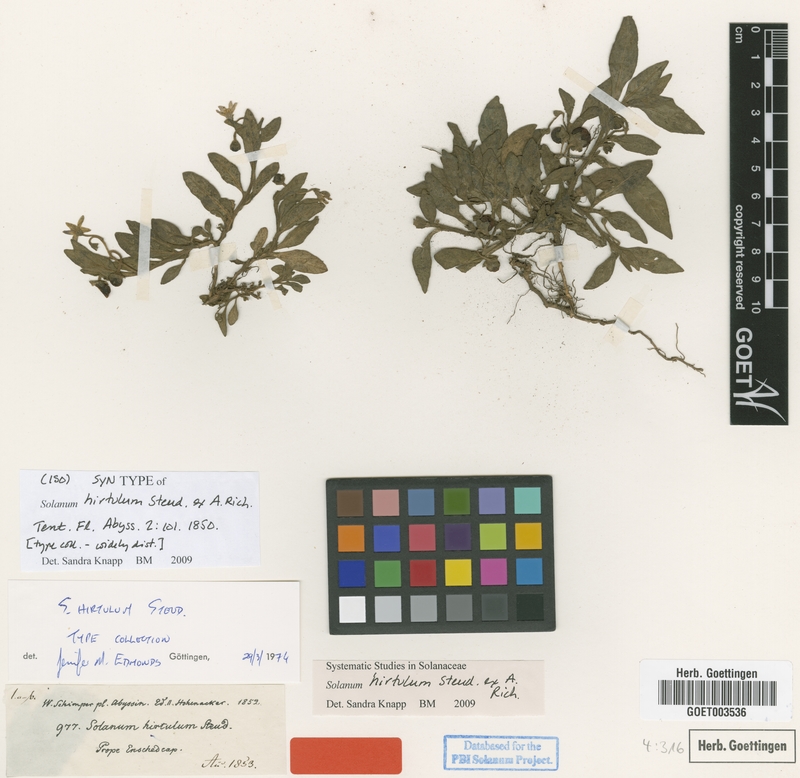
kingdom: Plantae
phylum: Tracheophyta
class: Magnoliopsida
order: Solanales
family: Solanaceae
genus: Solanum
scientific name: Solanum hirtulum
